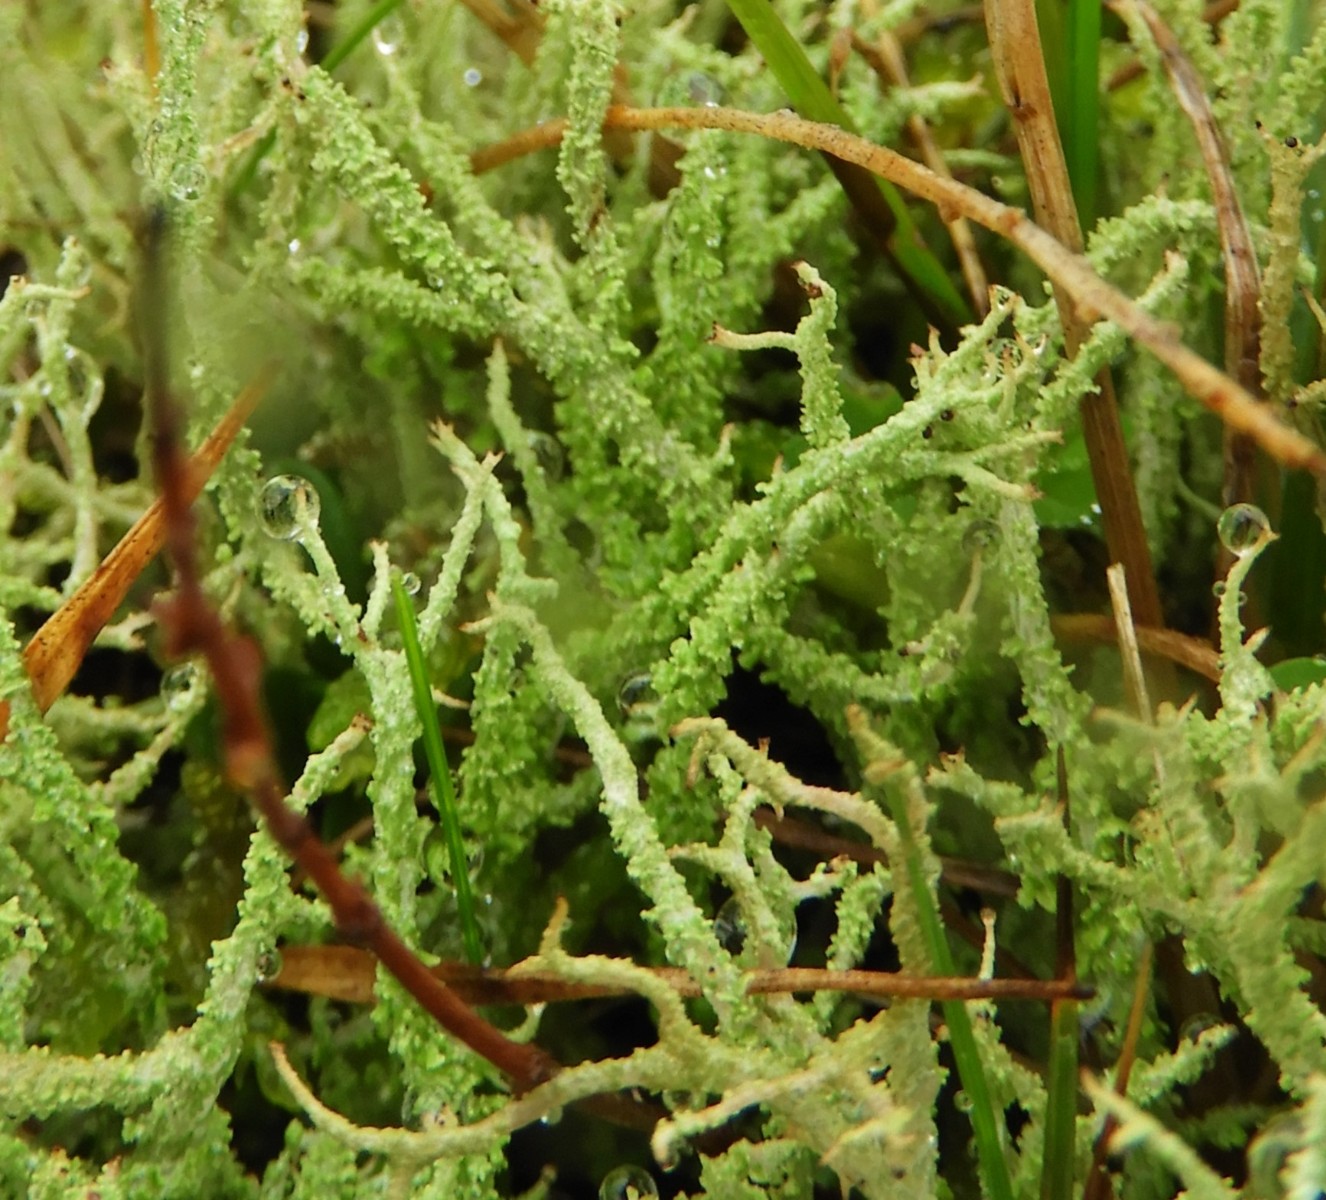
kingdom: Fungi
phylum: Ascomycota
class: Lecanoromycetes
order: Lecanorales
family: Cladoniaceae
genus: Cladonia
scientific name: Cladonia scabriuscula
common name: ru bægerlav
